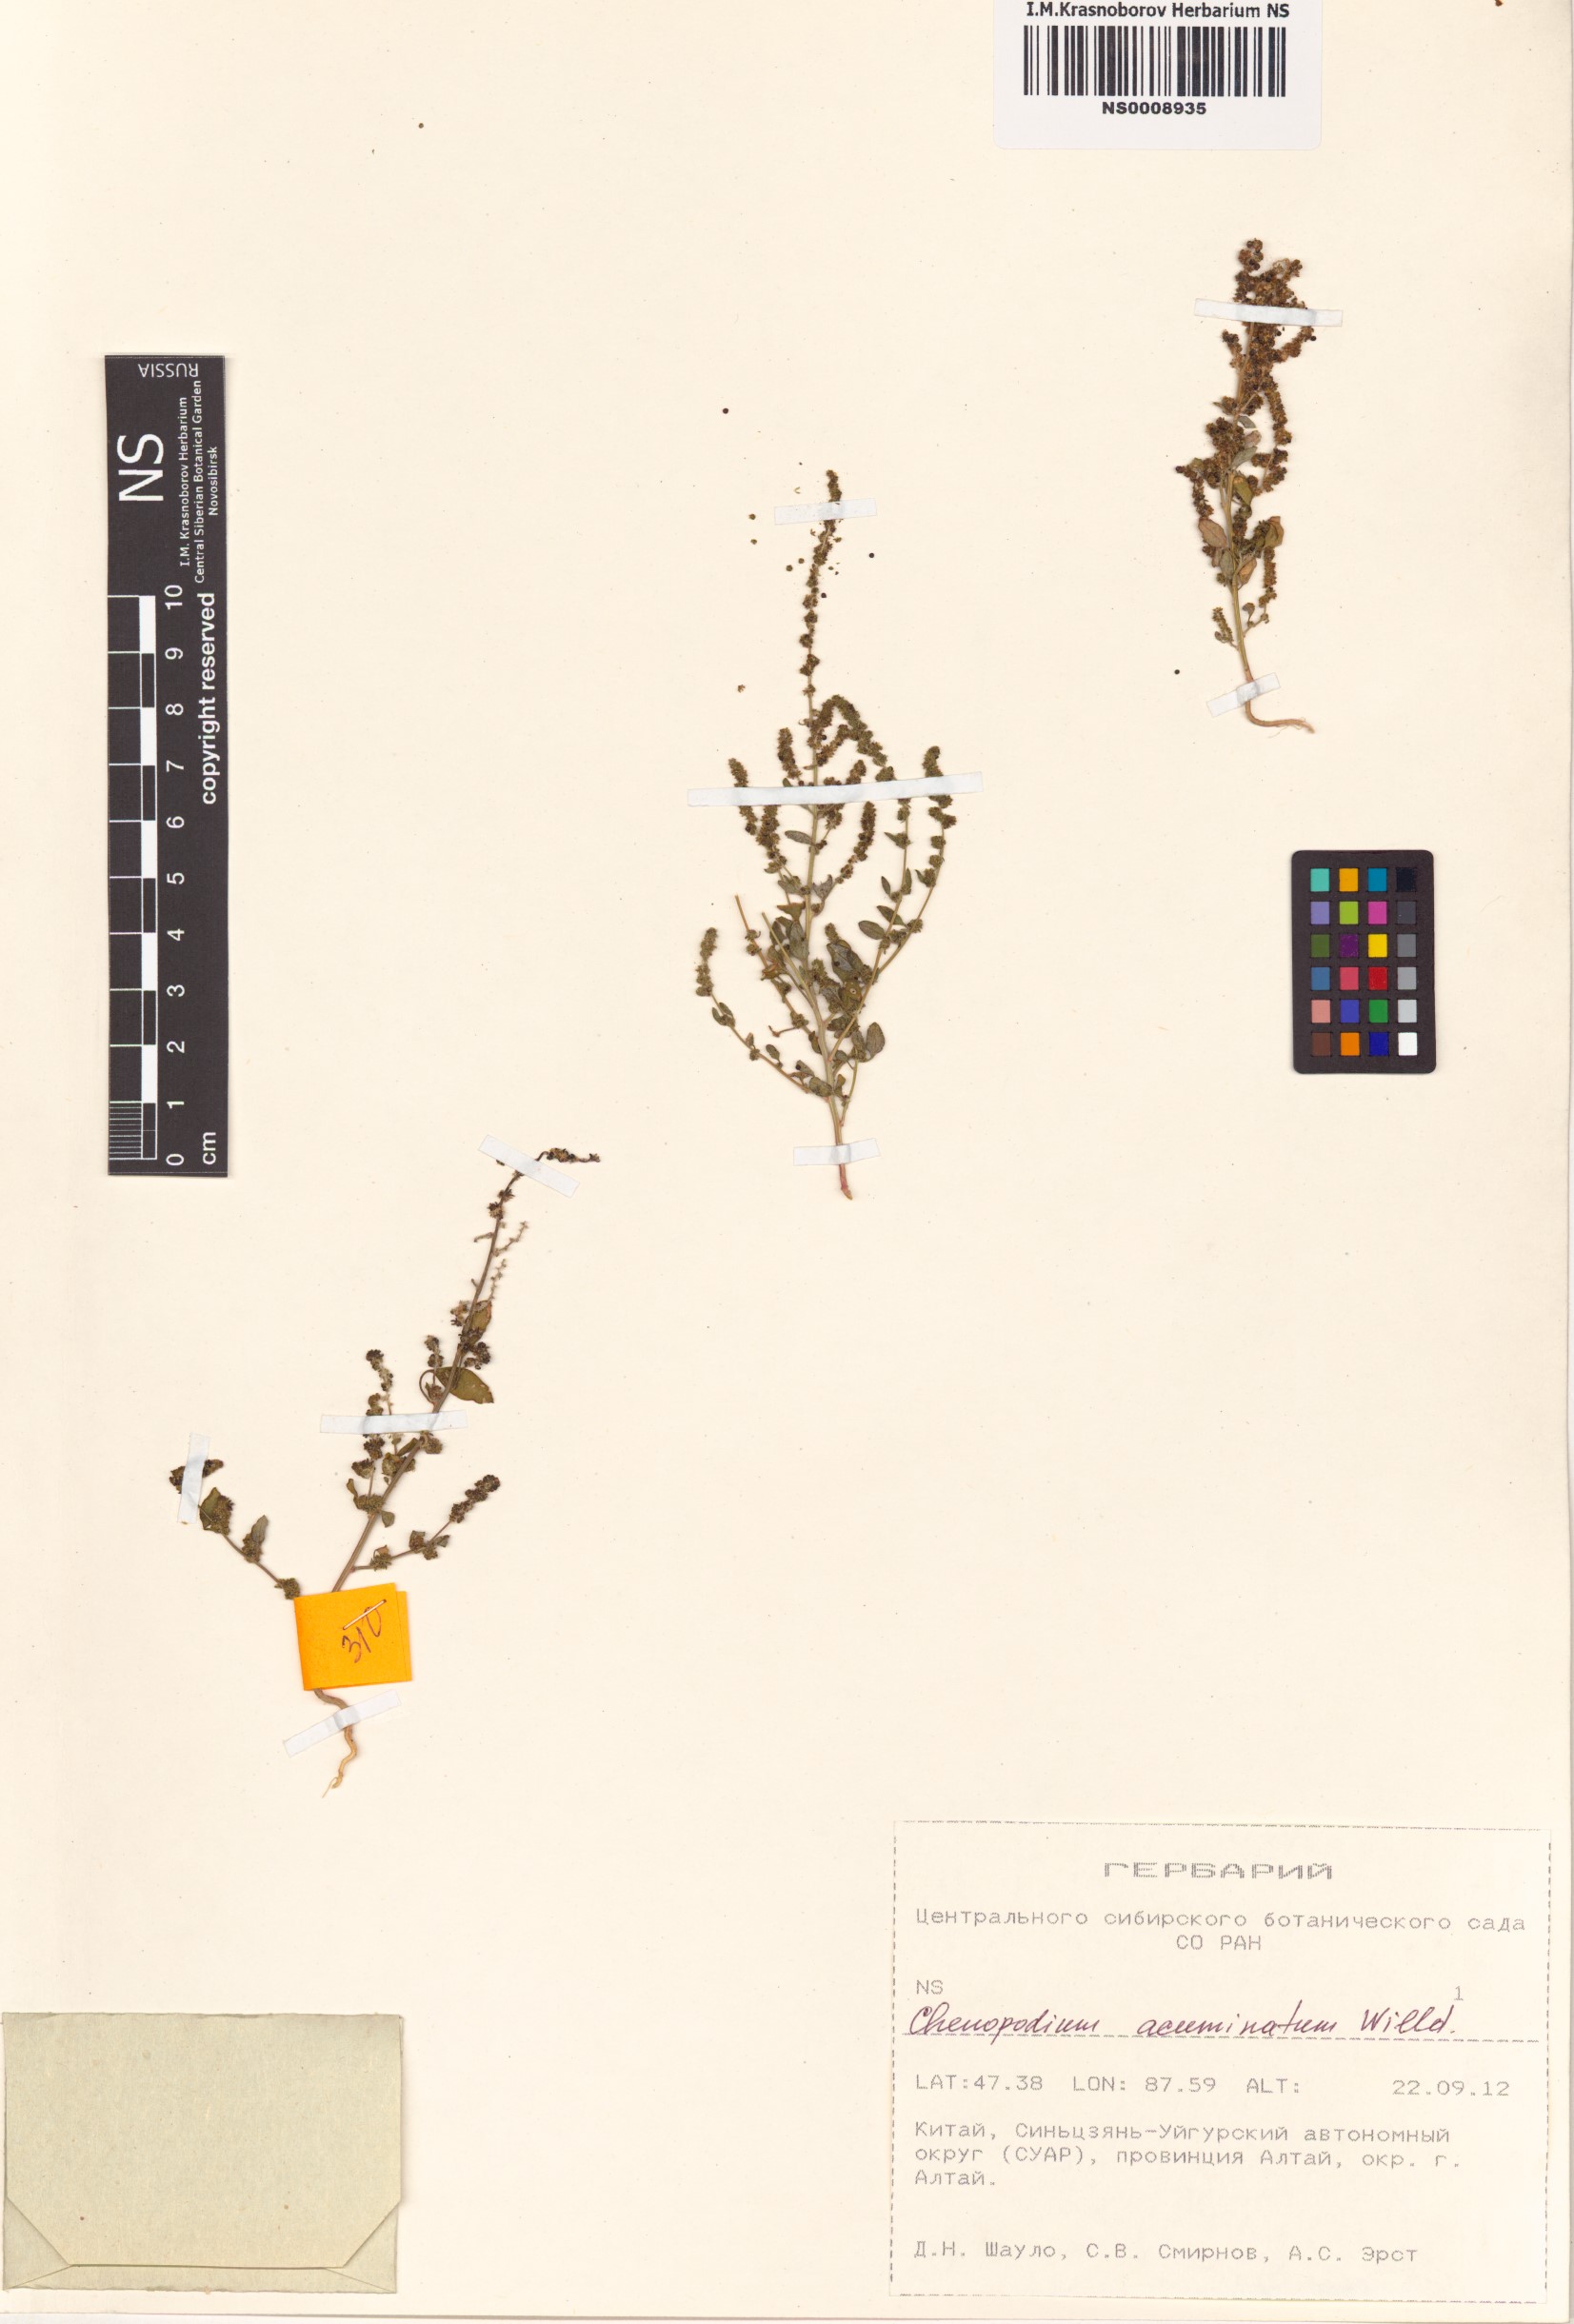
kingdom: Plantae
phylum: Tracheophyta
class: Magnoliopsida
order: Caryophyllales
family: Amaranthaceae
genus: Chenopodium
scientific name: Chenopodium acuminatum
